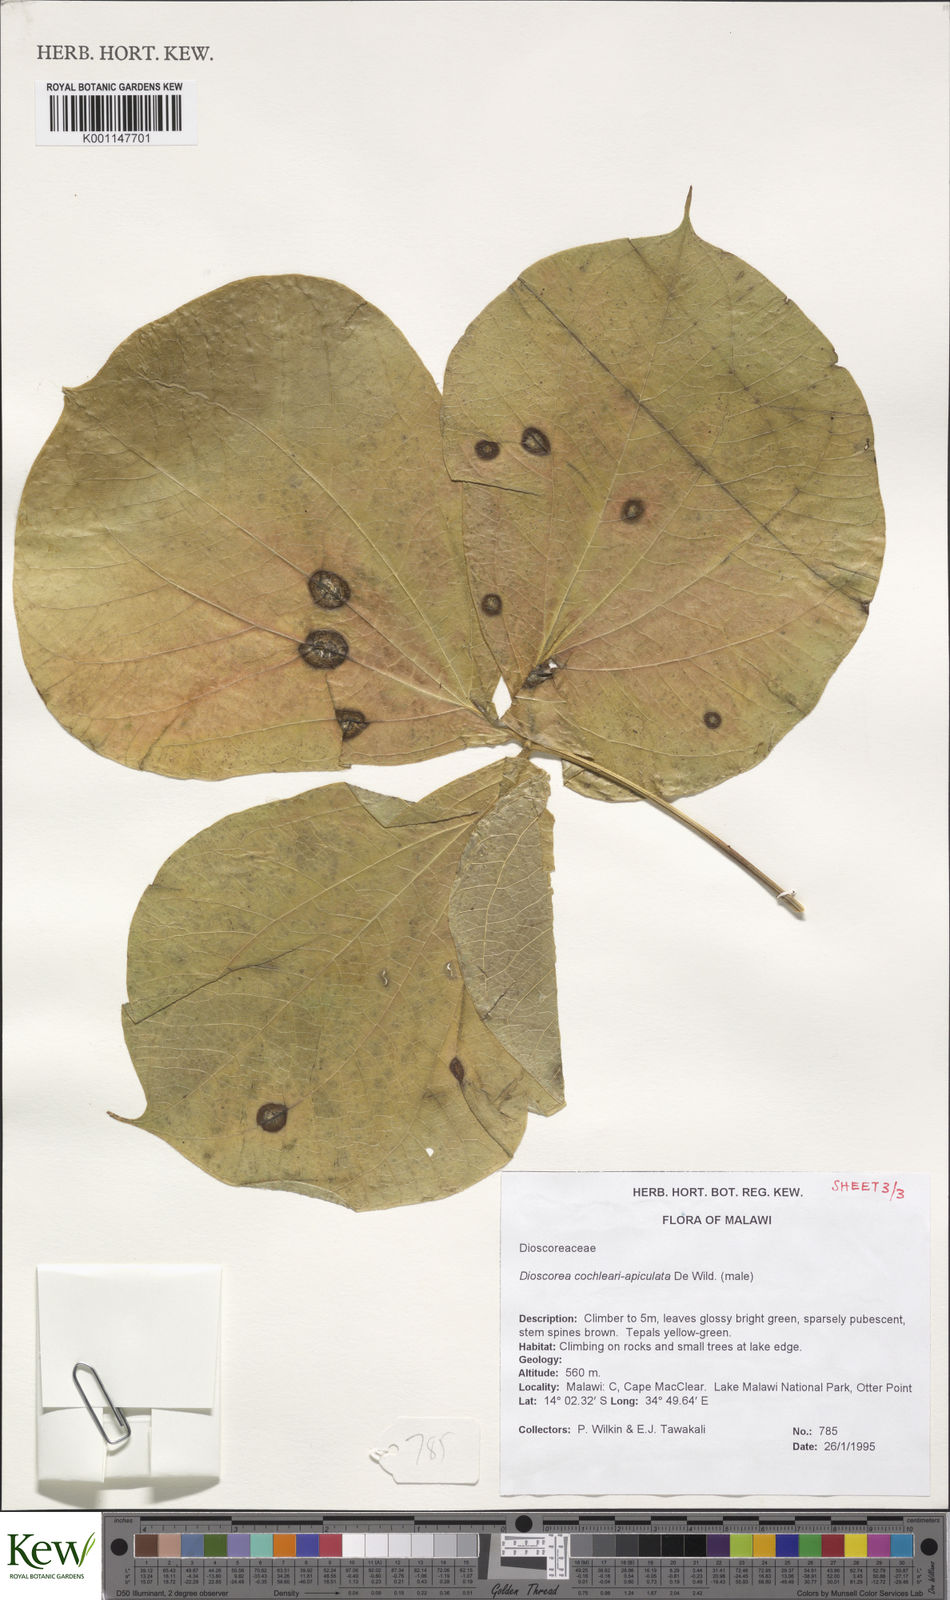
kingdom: Plantae
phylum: Tracheophyta
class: Liliopsida
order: Dioscoreales
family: Dioscoreaceae
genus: Dioscorea
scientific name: Dioscorea cochleariapiculata
